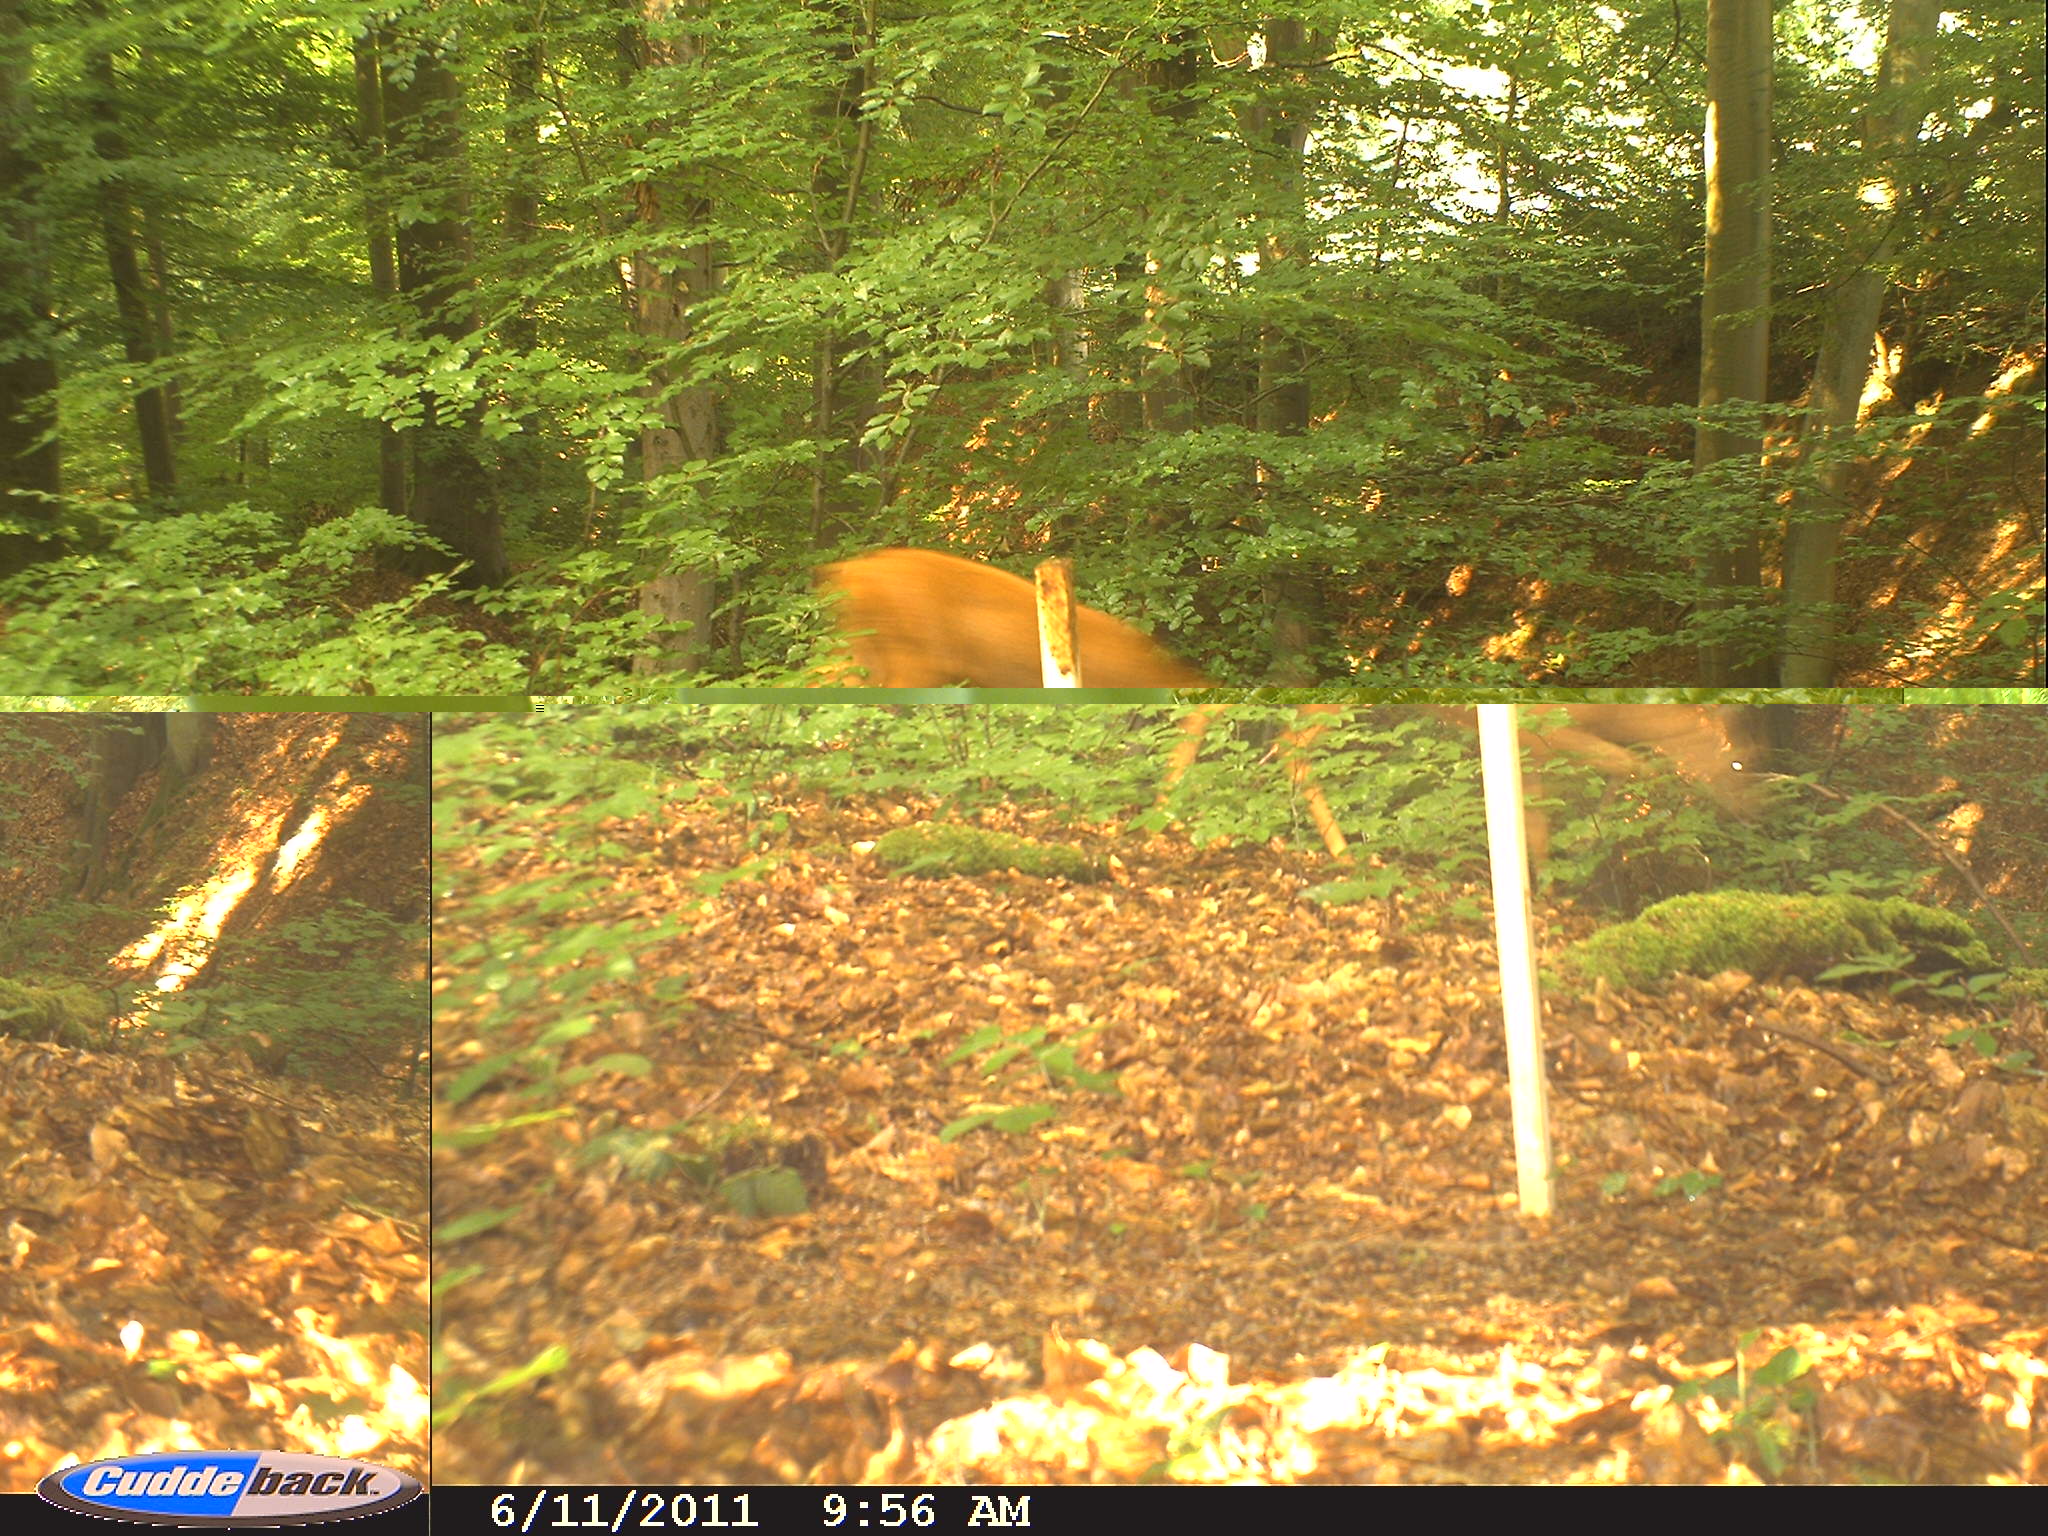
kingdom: Animalia
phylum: Chordata
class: Mammalia
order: Artiodactyla
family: Cervidae
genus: Capreolus
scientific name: Capreolus capreolus
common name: Western roe deer
